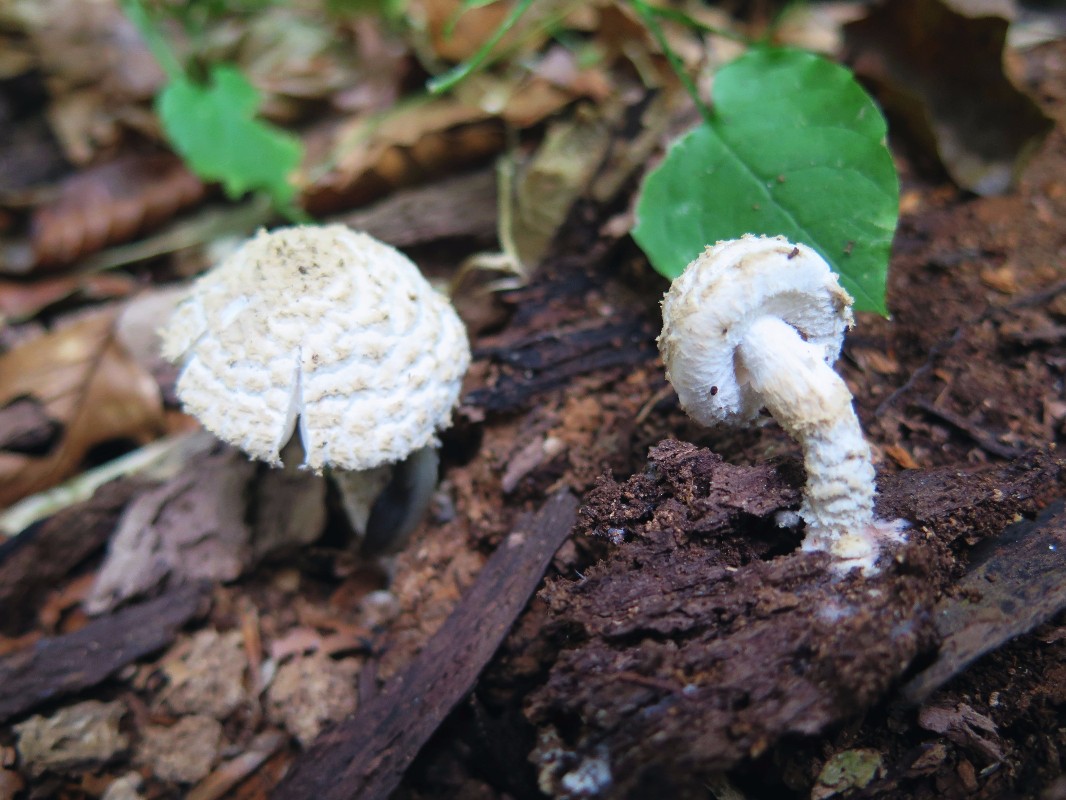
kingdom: Fungi
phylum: Basidiomycota
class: Agaricomycetes
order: Agaricales
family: Agaricaceae
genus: Cystolepiota
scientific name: Cystolepiota adulterina
